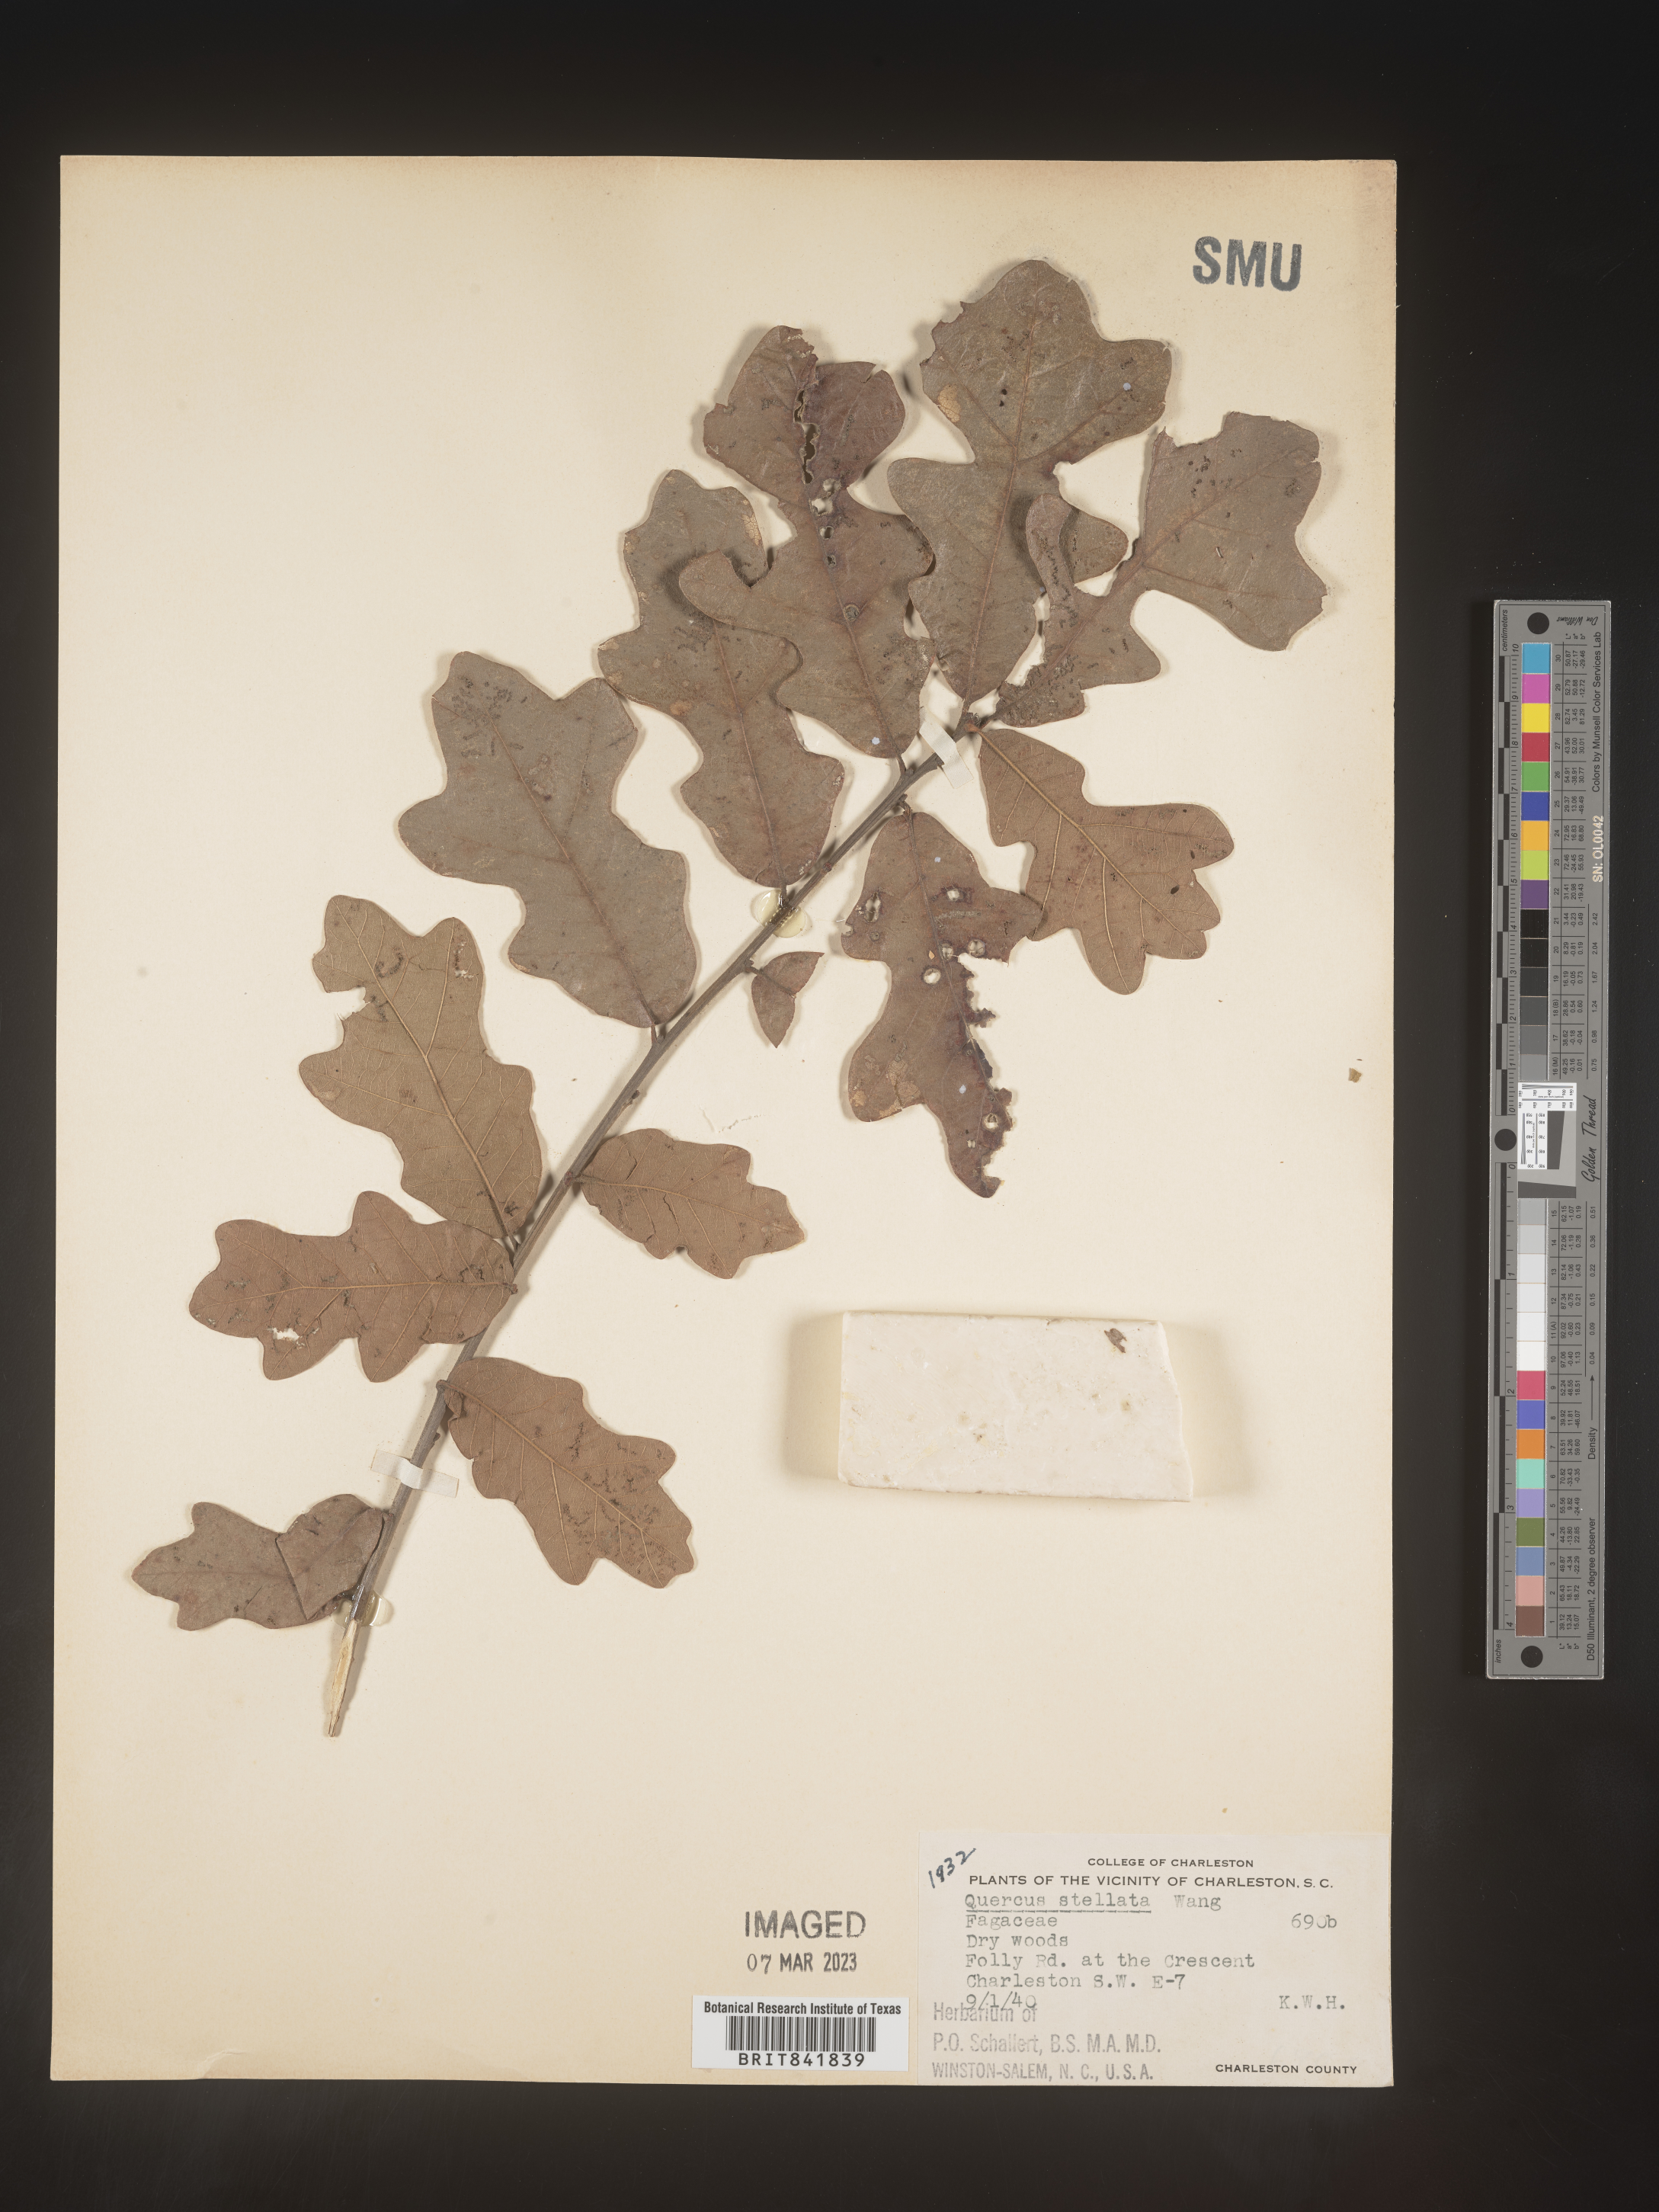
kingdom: Plantae
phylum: Tracheophyta
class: Magnoliopsida
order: Fagales
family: Fagaceae
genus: Quercus
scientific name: Quercus stellata
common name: Post oak
